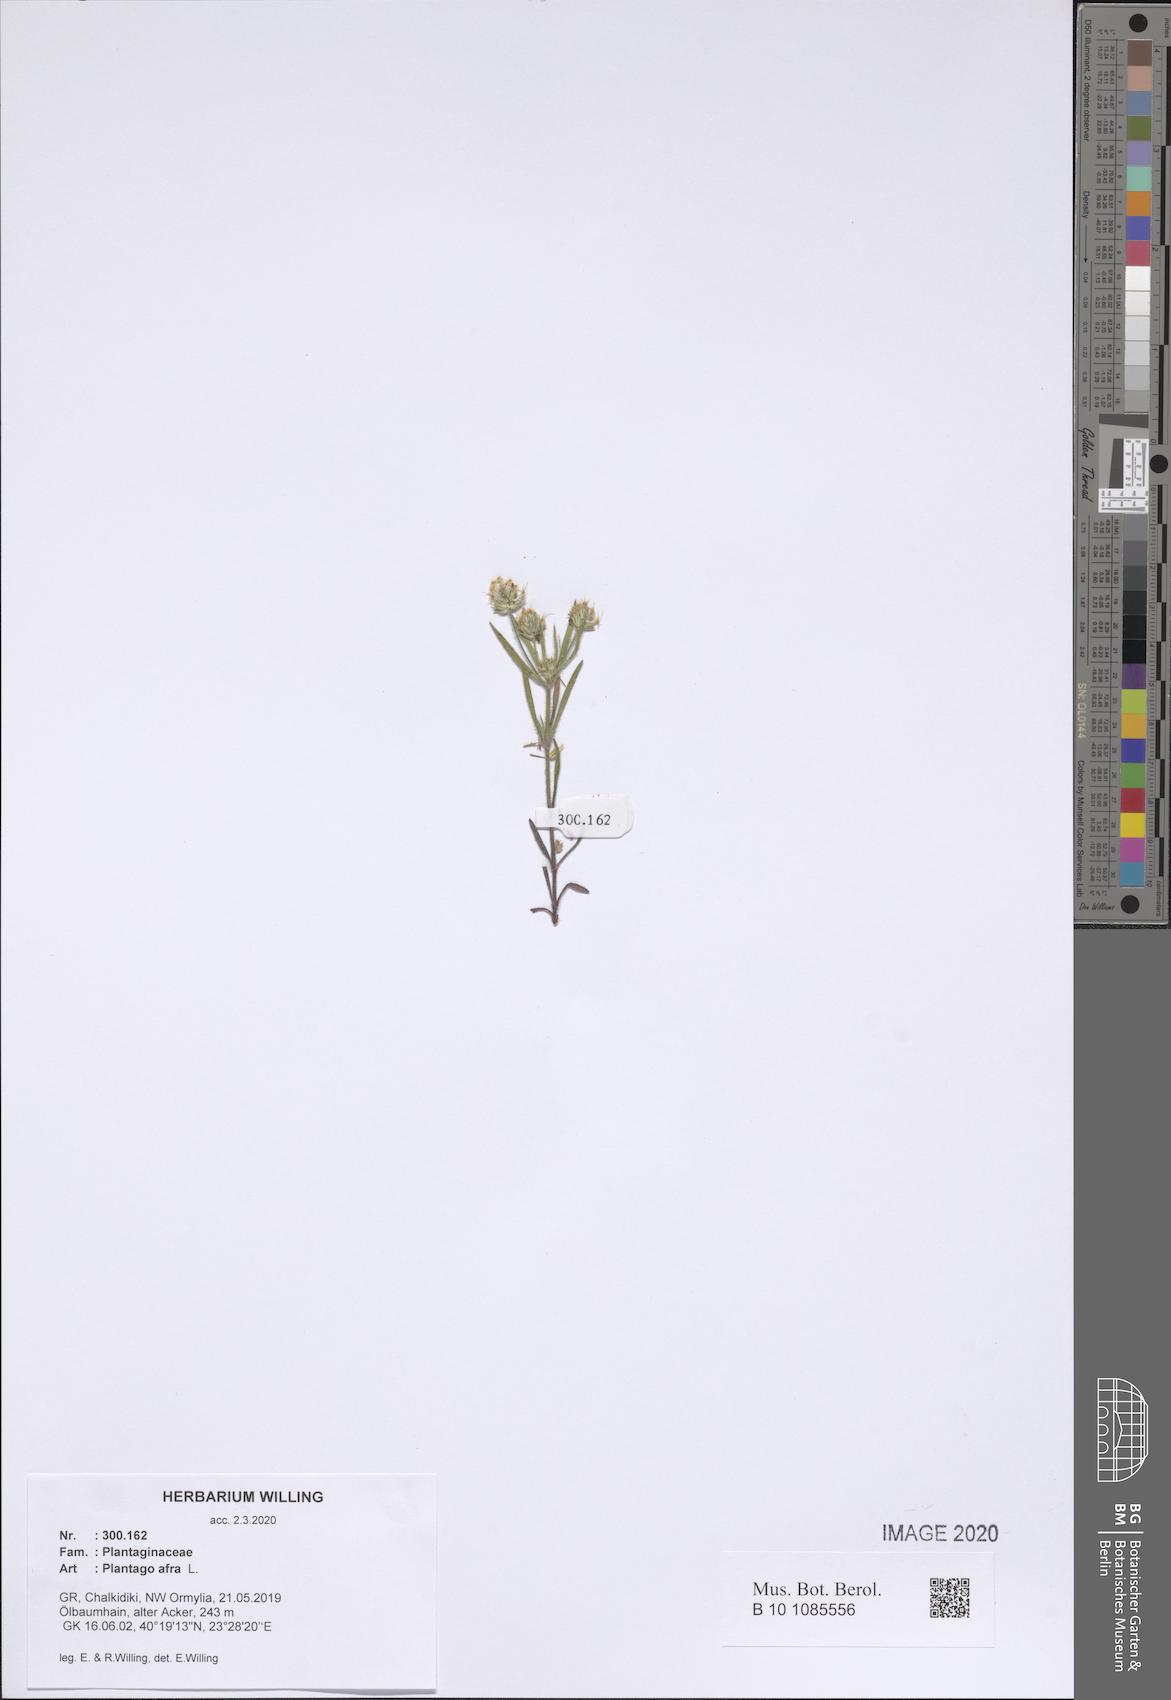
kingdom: Plantae
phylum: Tracheophyta
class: Magnoliopsida
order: Lamiales
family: Plantaginaceae
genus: Plantago
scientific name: Plantago afra
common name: Glandular plantain
